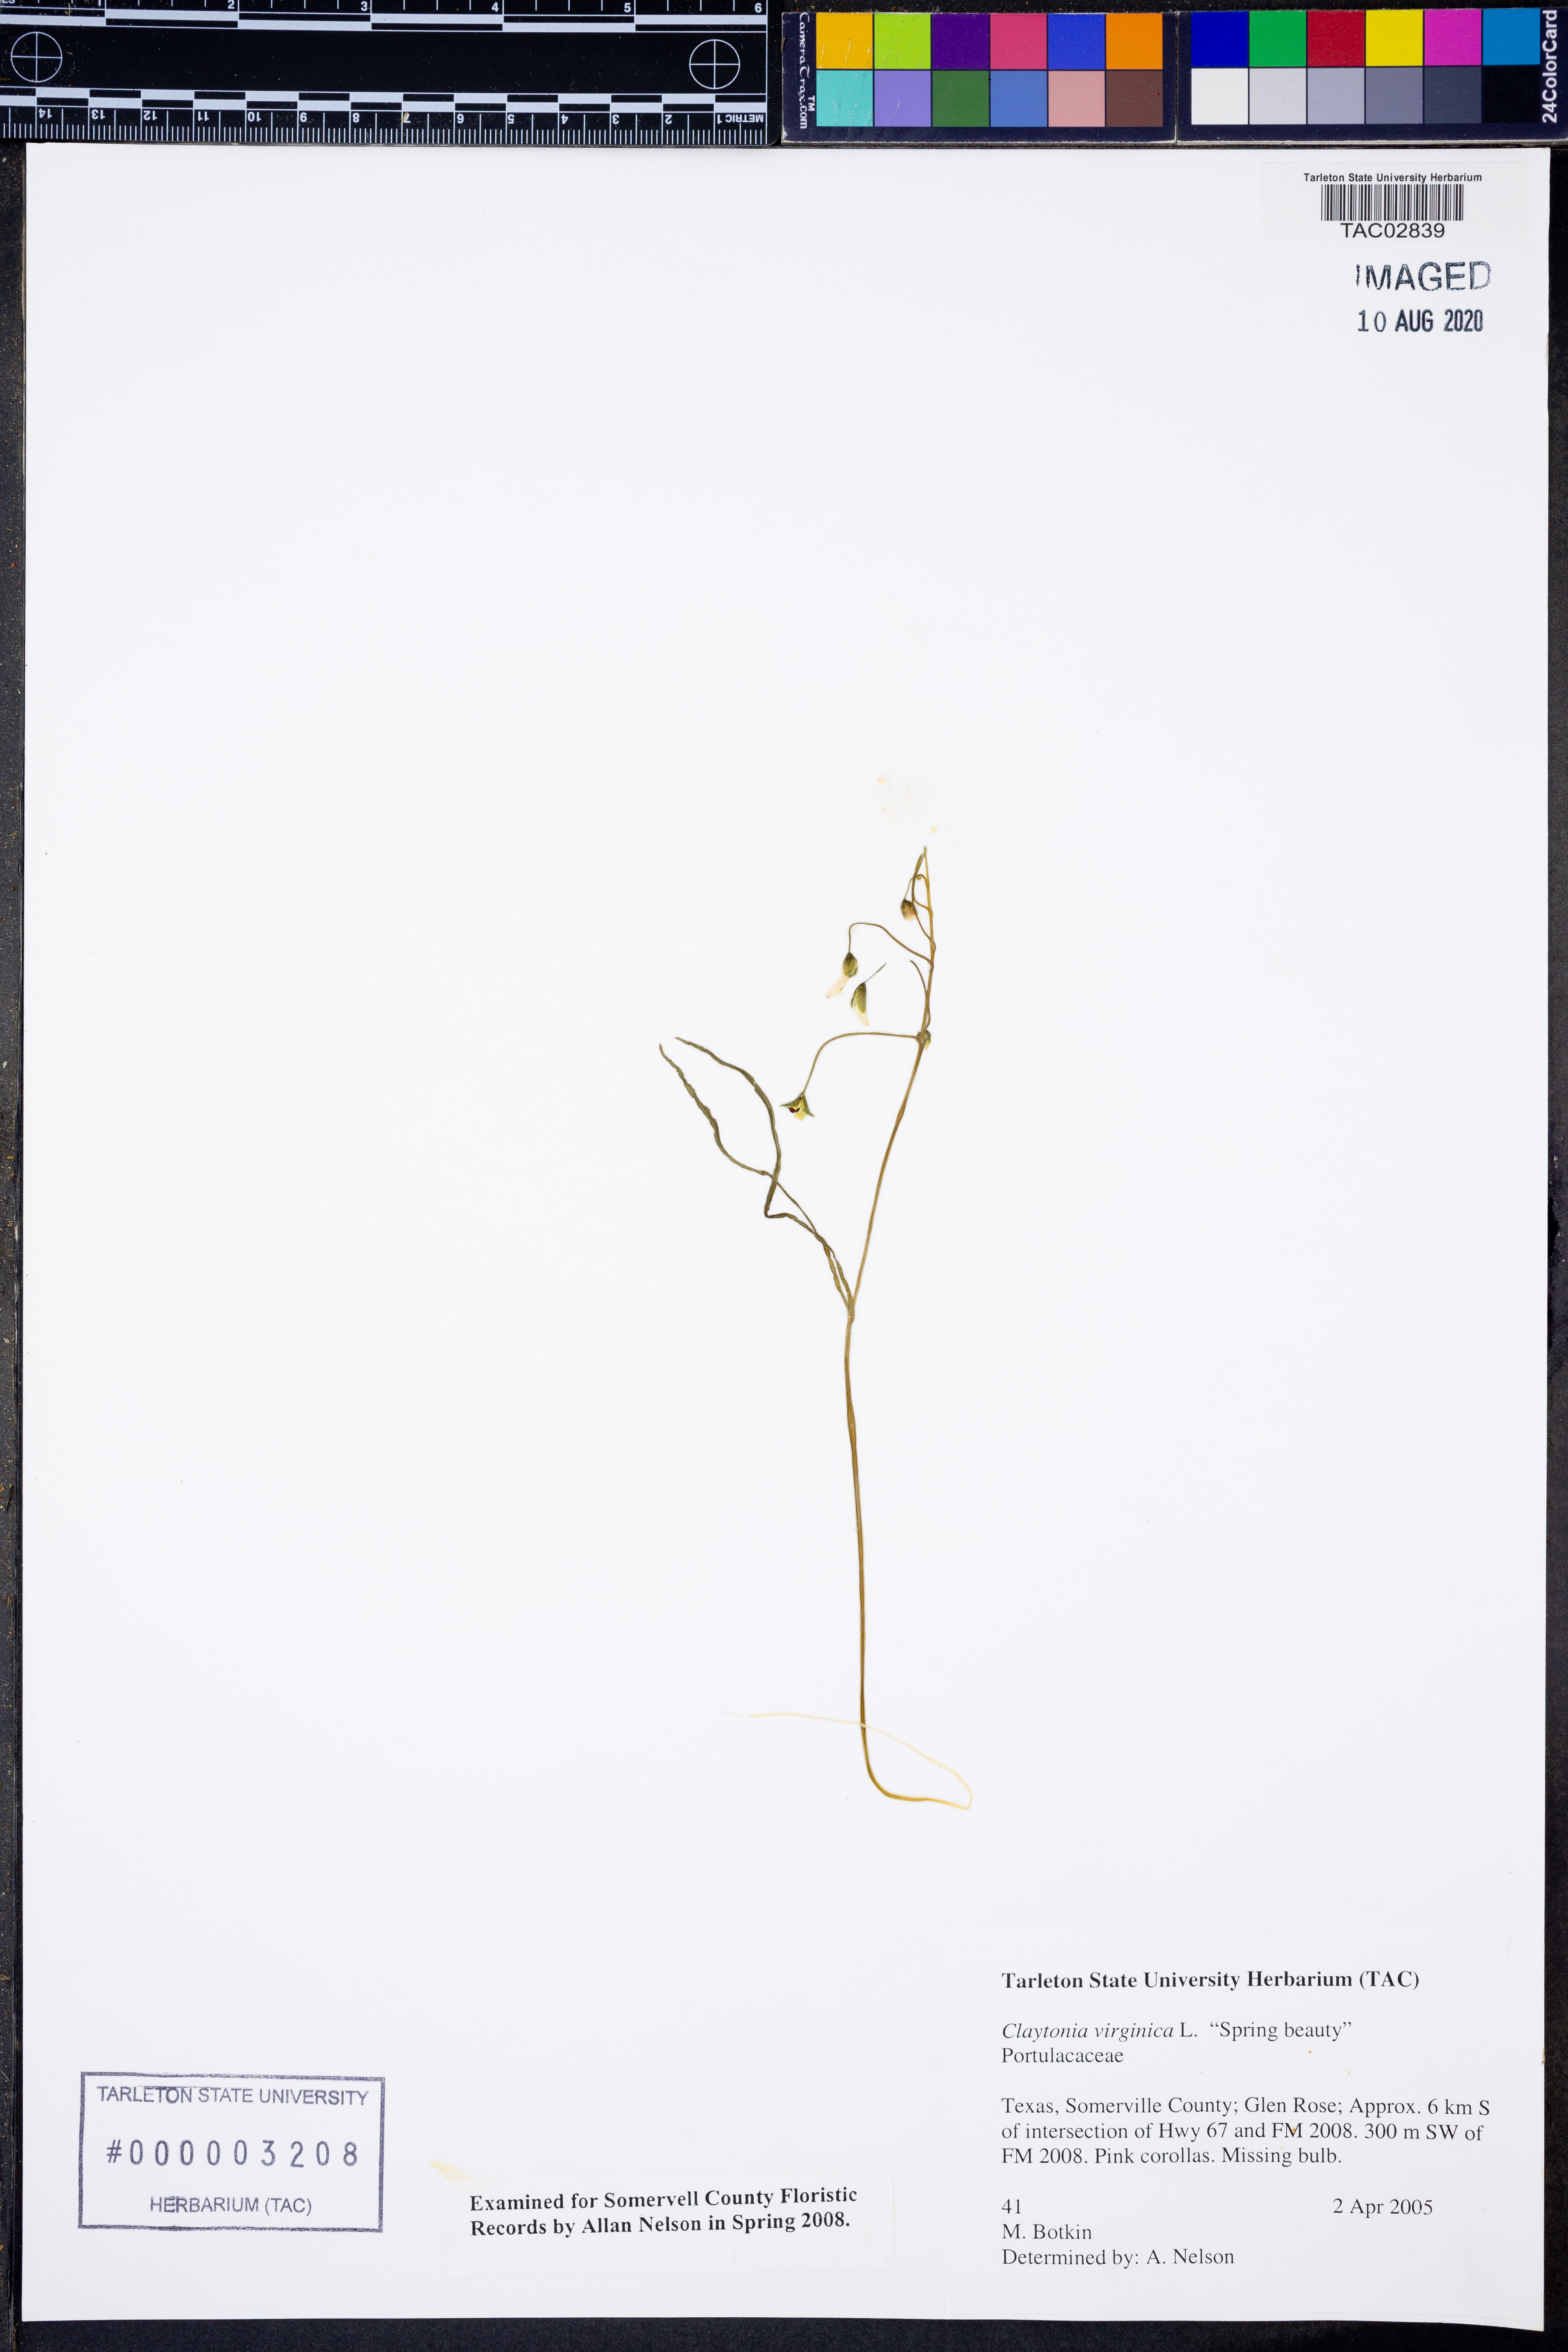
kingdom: Plantae
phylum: Tracheophyta
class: Magnoliopsida
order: Caryophyllales
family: Montiaceae
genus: Claytonia
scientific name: Claytonia virginica
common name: Virginia springbeauty
